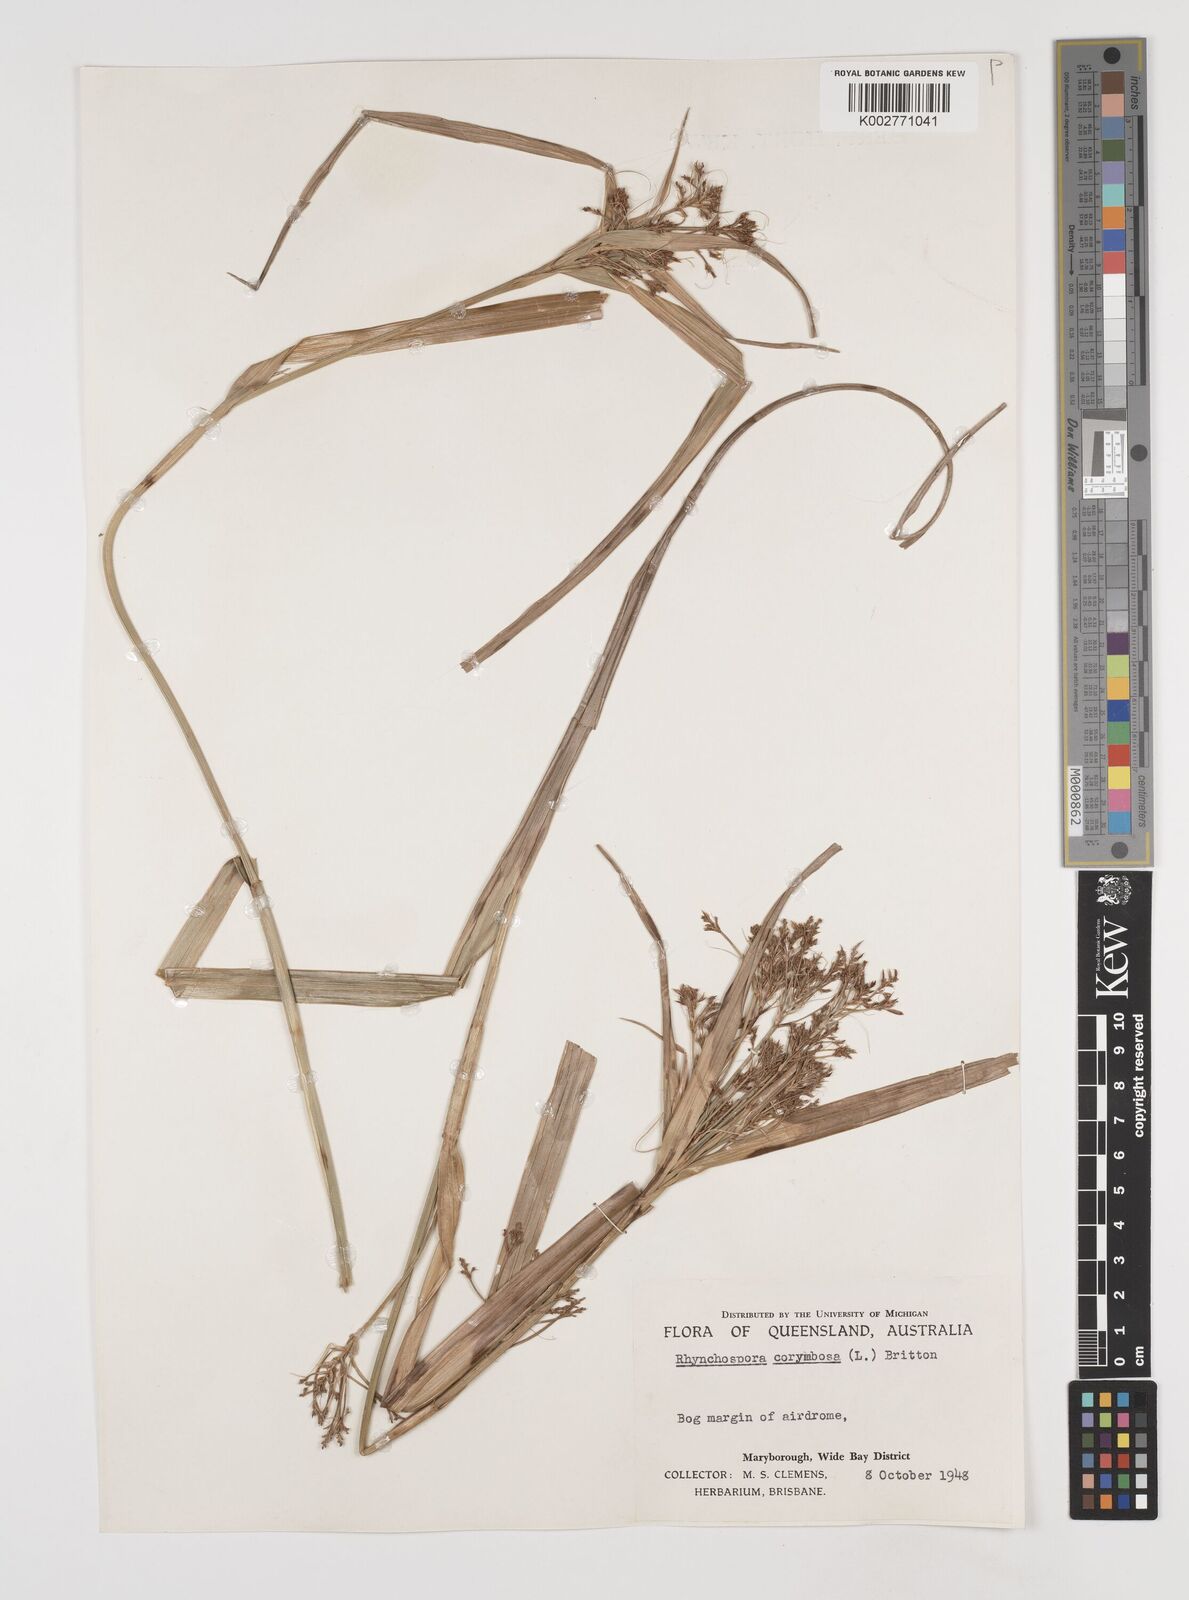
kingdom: Plantae
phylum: Tracheophyta
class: Liliopsida
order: Poales
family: Cyperaceae
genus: Rhynchospora
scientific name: Rhynchospora corymbosa
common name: Golden beak sedge
